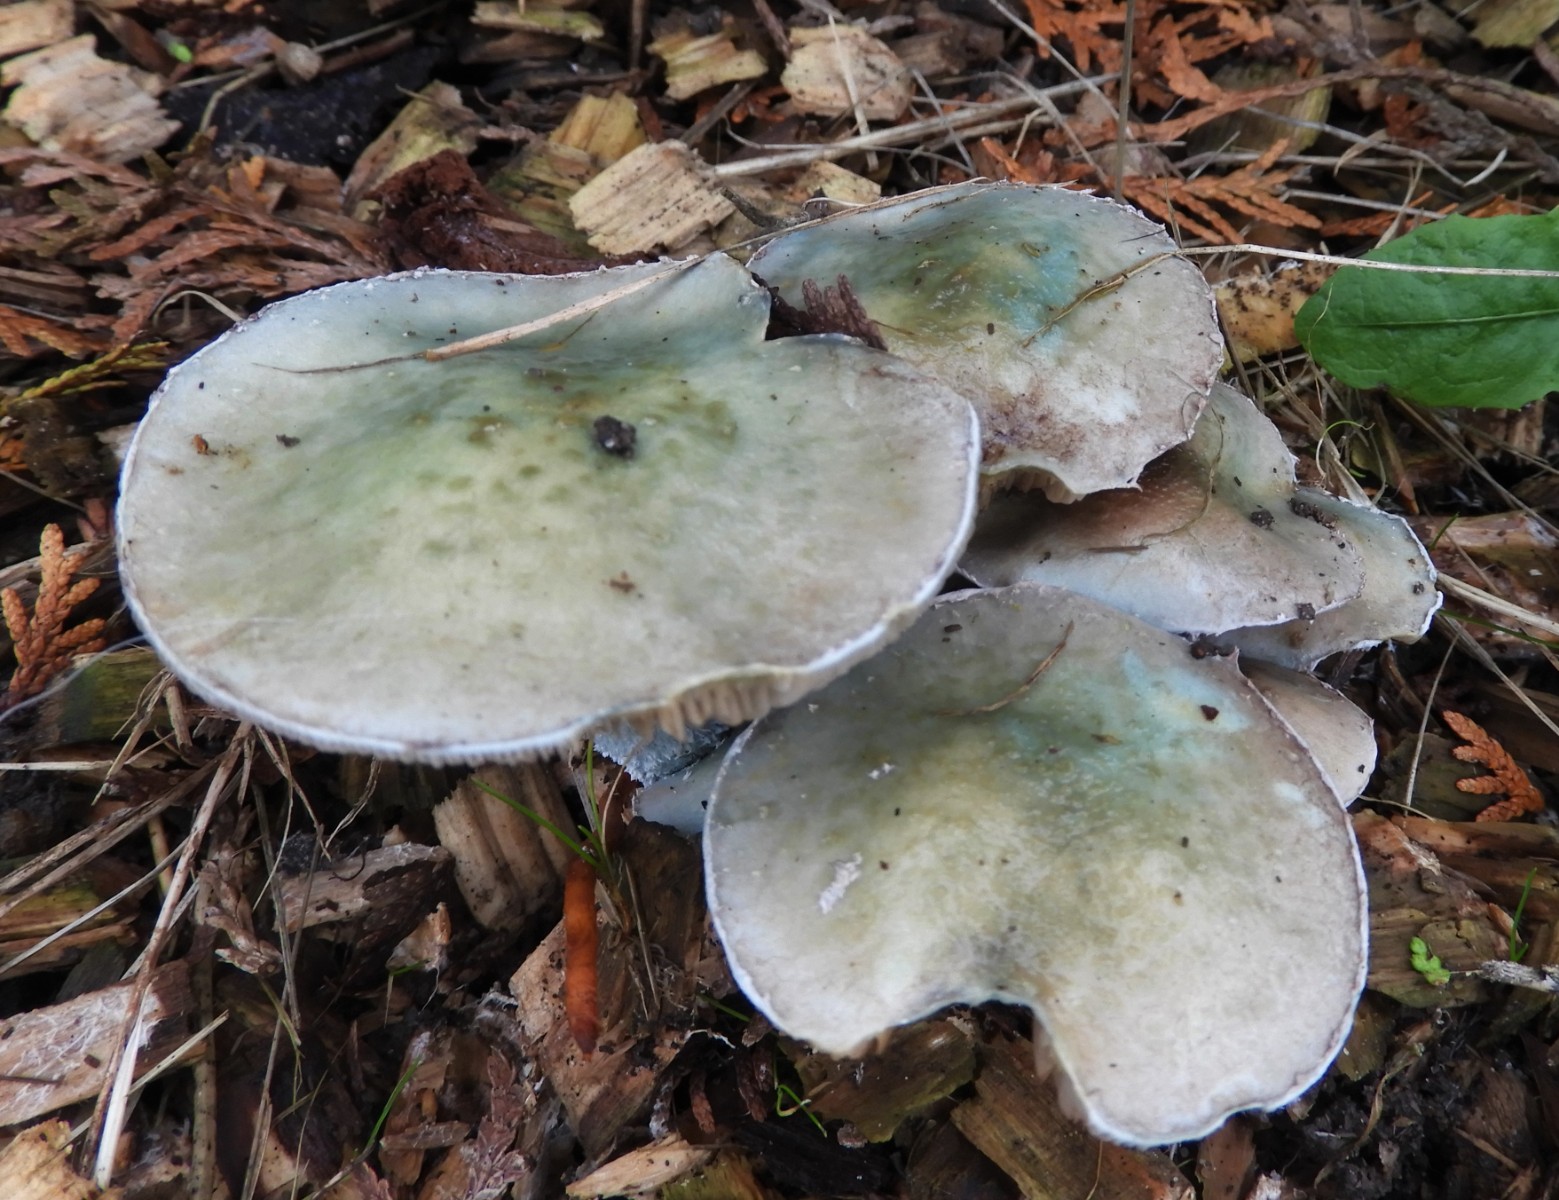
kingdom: Fungi
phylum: Basidiomycota
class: Agaricomycetes
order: Agaricales
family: Strophariaceae
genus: Stropharia
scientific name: Stropharia cyanea
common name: blågrøn bredblad
